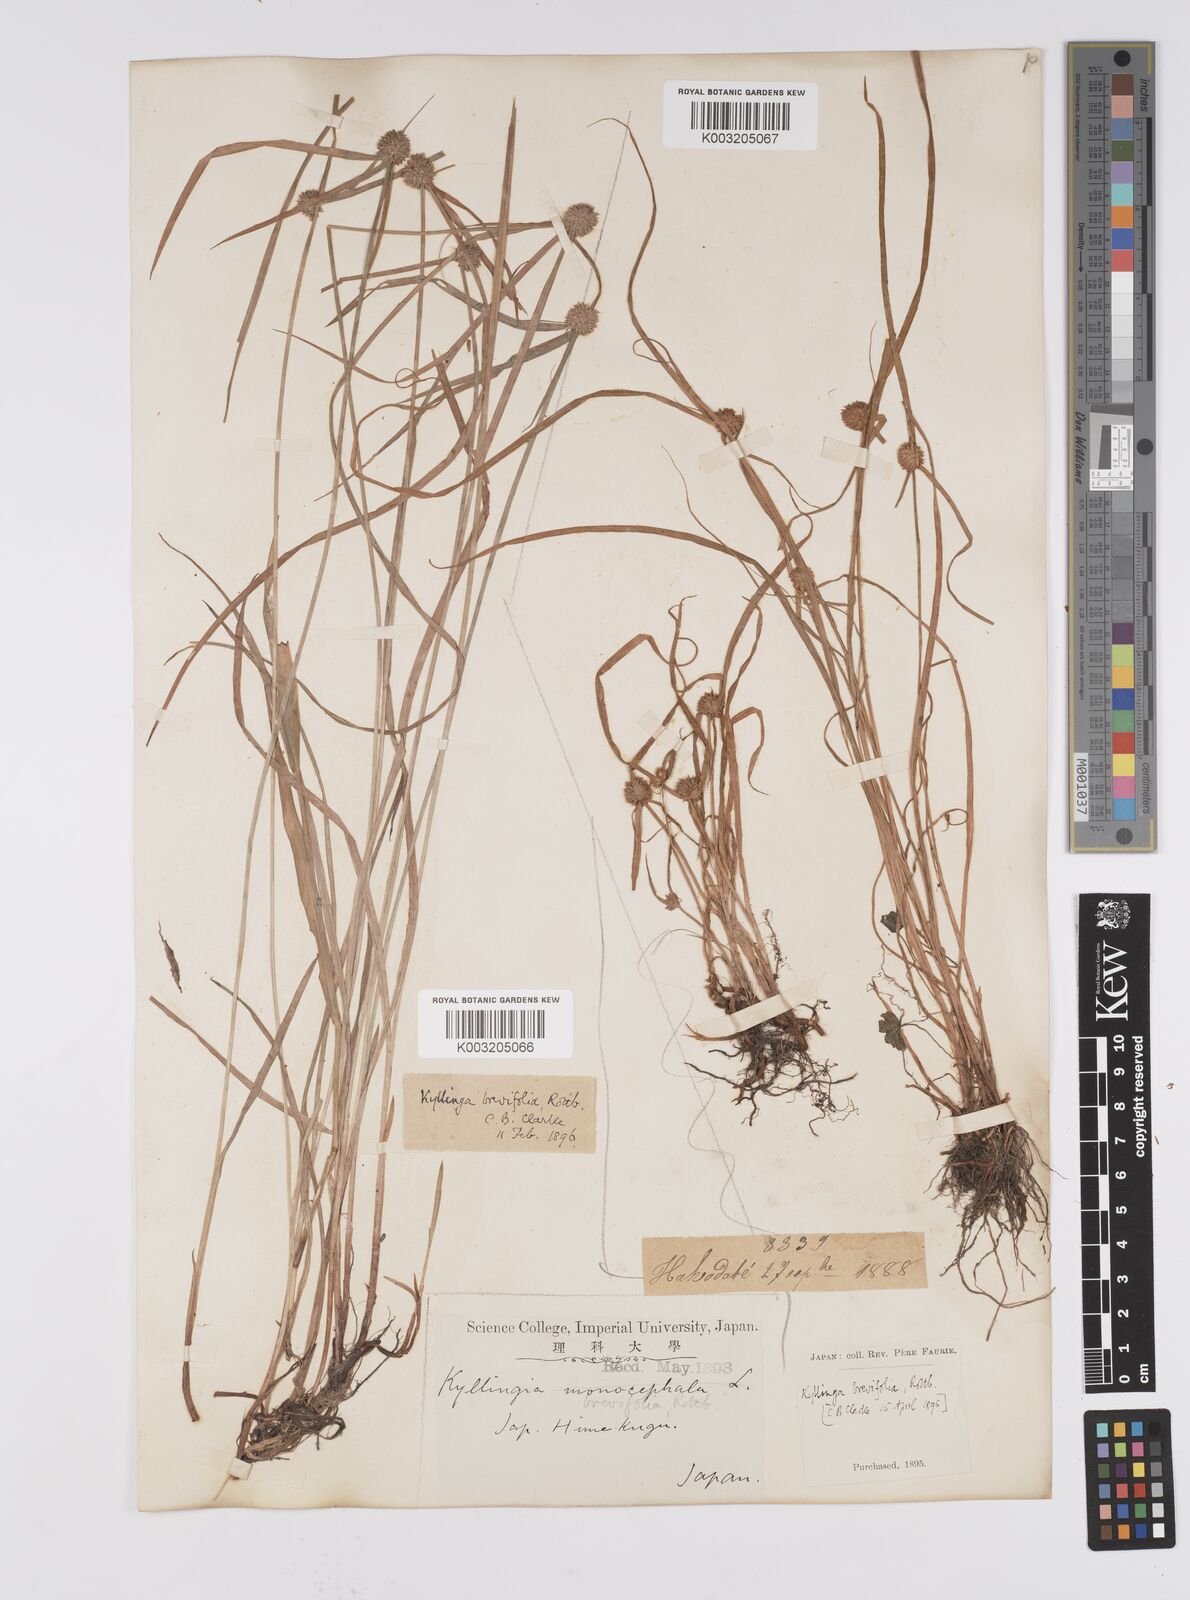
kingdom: Plantae
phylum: Tracheophyta
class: Liliopsida
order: Poales
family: Cyperaceae
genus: Cyperus
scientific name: Cyperus brevifolius
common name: Globe kyllinga
